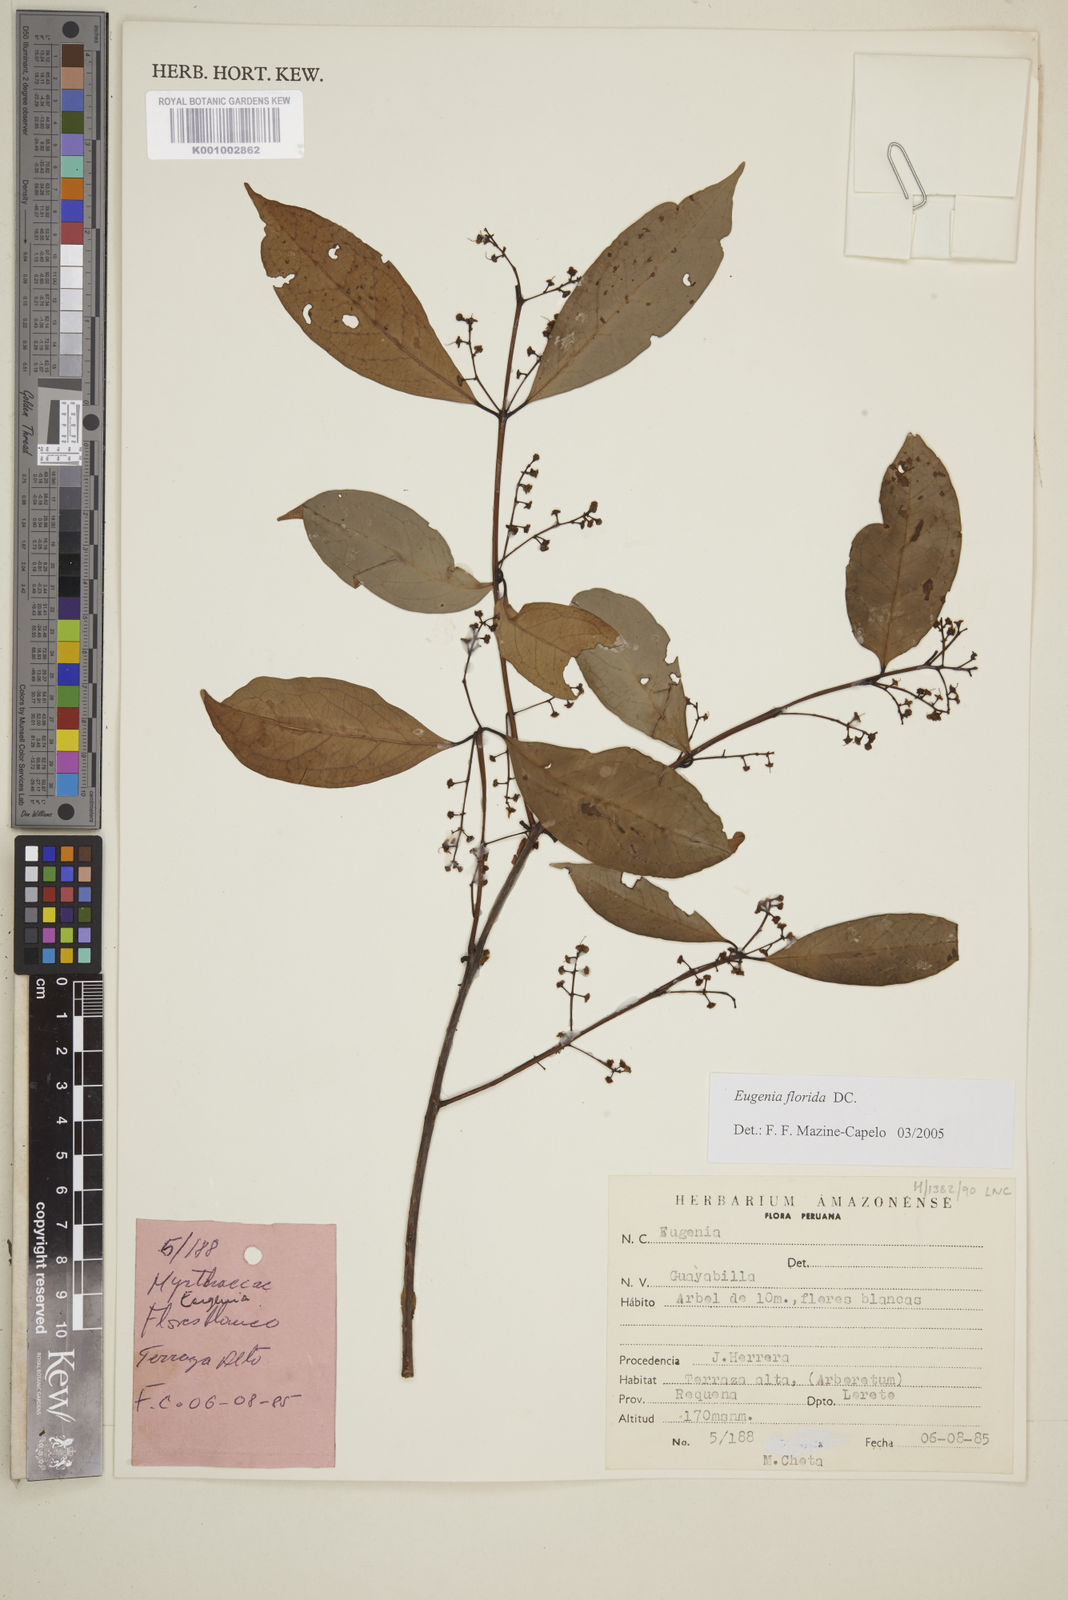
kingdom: Plantae
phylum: Tracheophyta
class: Magnoliopsida
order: Myrtales
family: Myrtaceae
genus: Eugenia
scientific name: Eugenia florida
